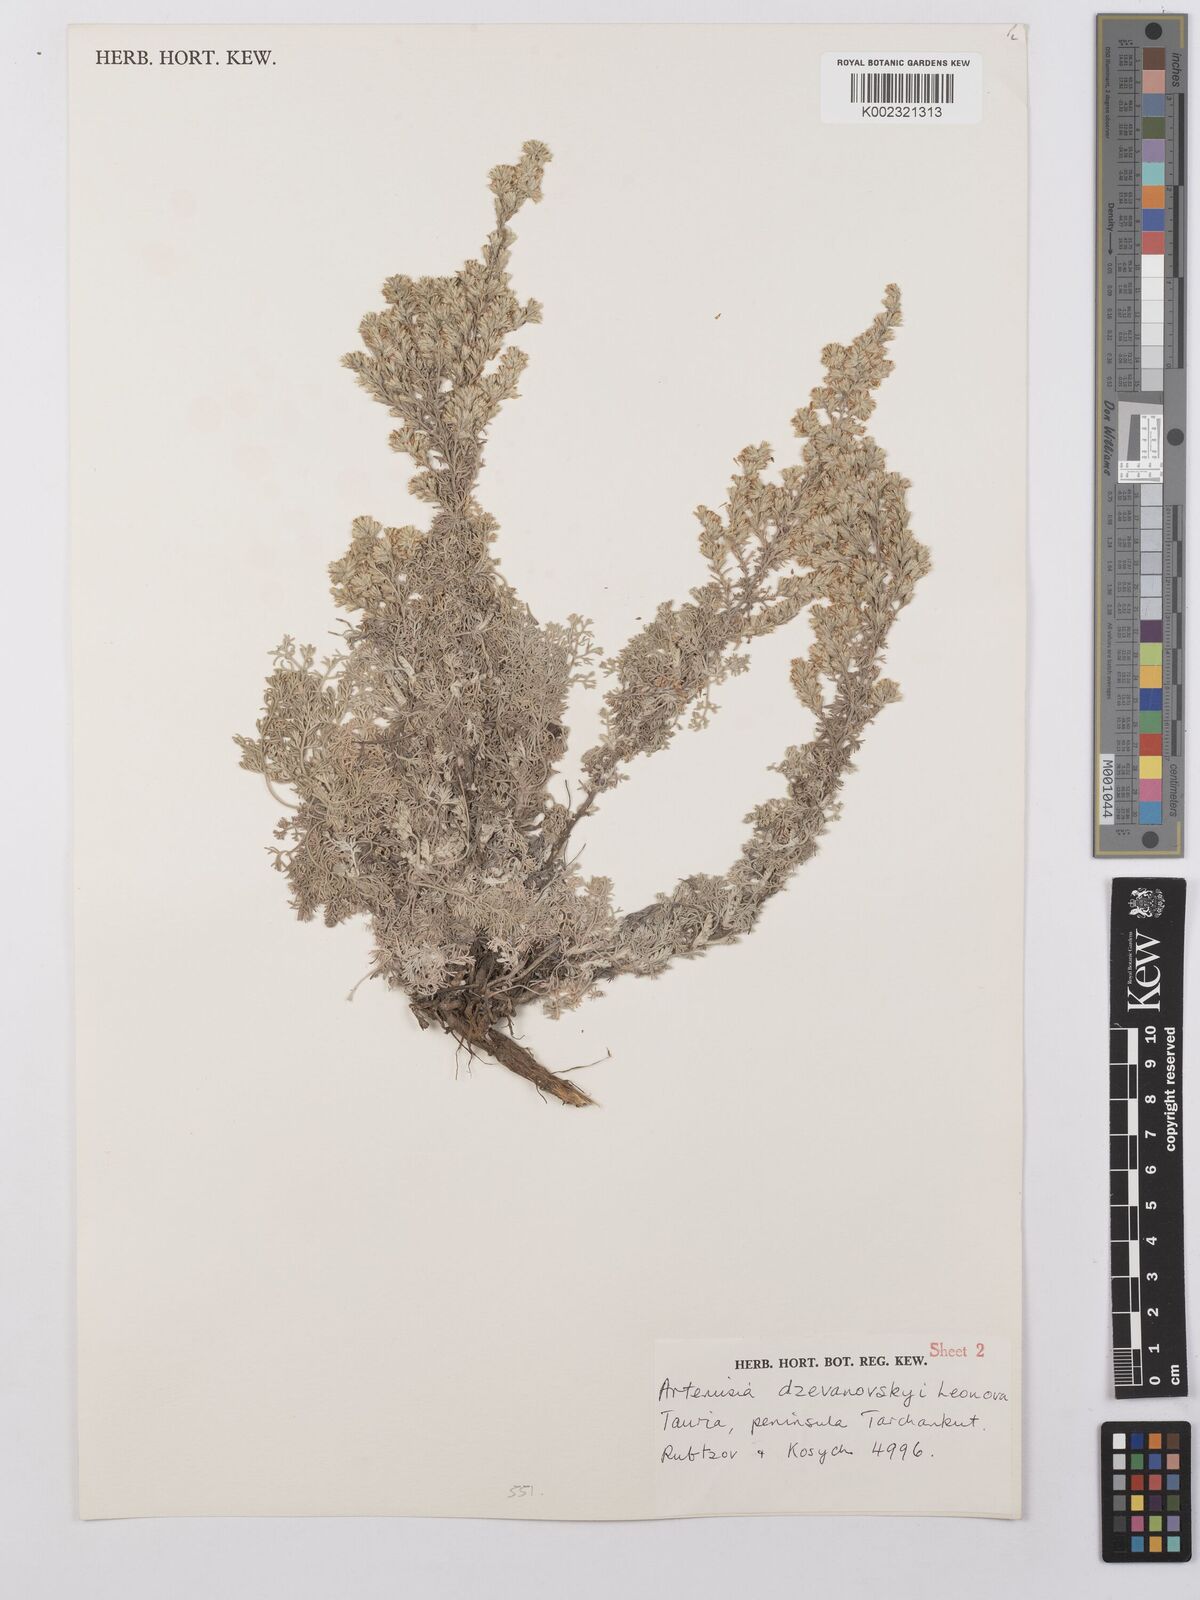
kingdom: Plantae
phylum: Tracheophyta
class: Magnoliopsida
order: Asterales
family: Asteraceae
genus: Artemisia
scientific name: Artemisia dzevanovskyi
